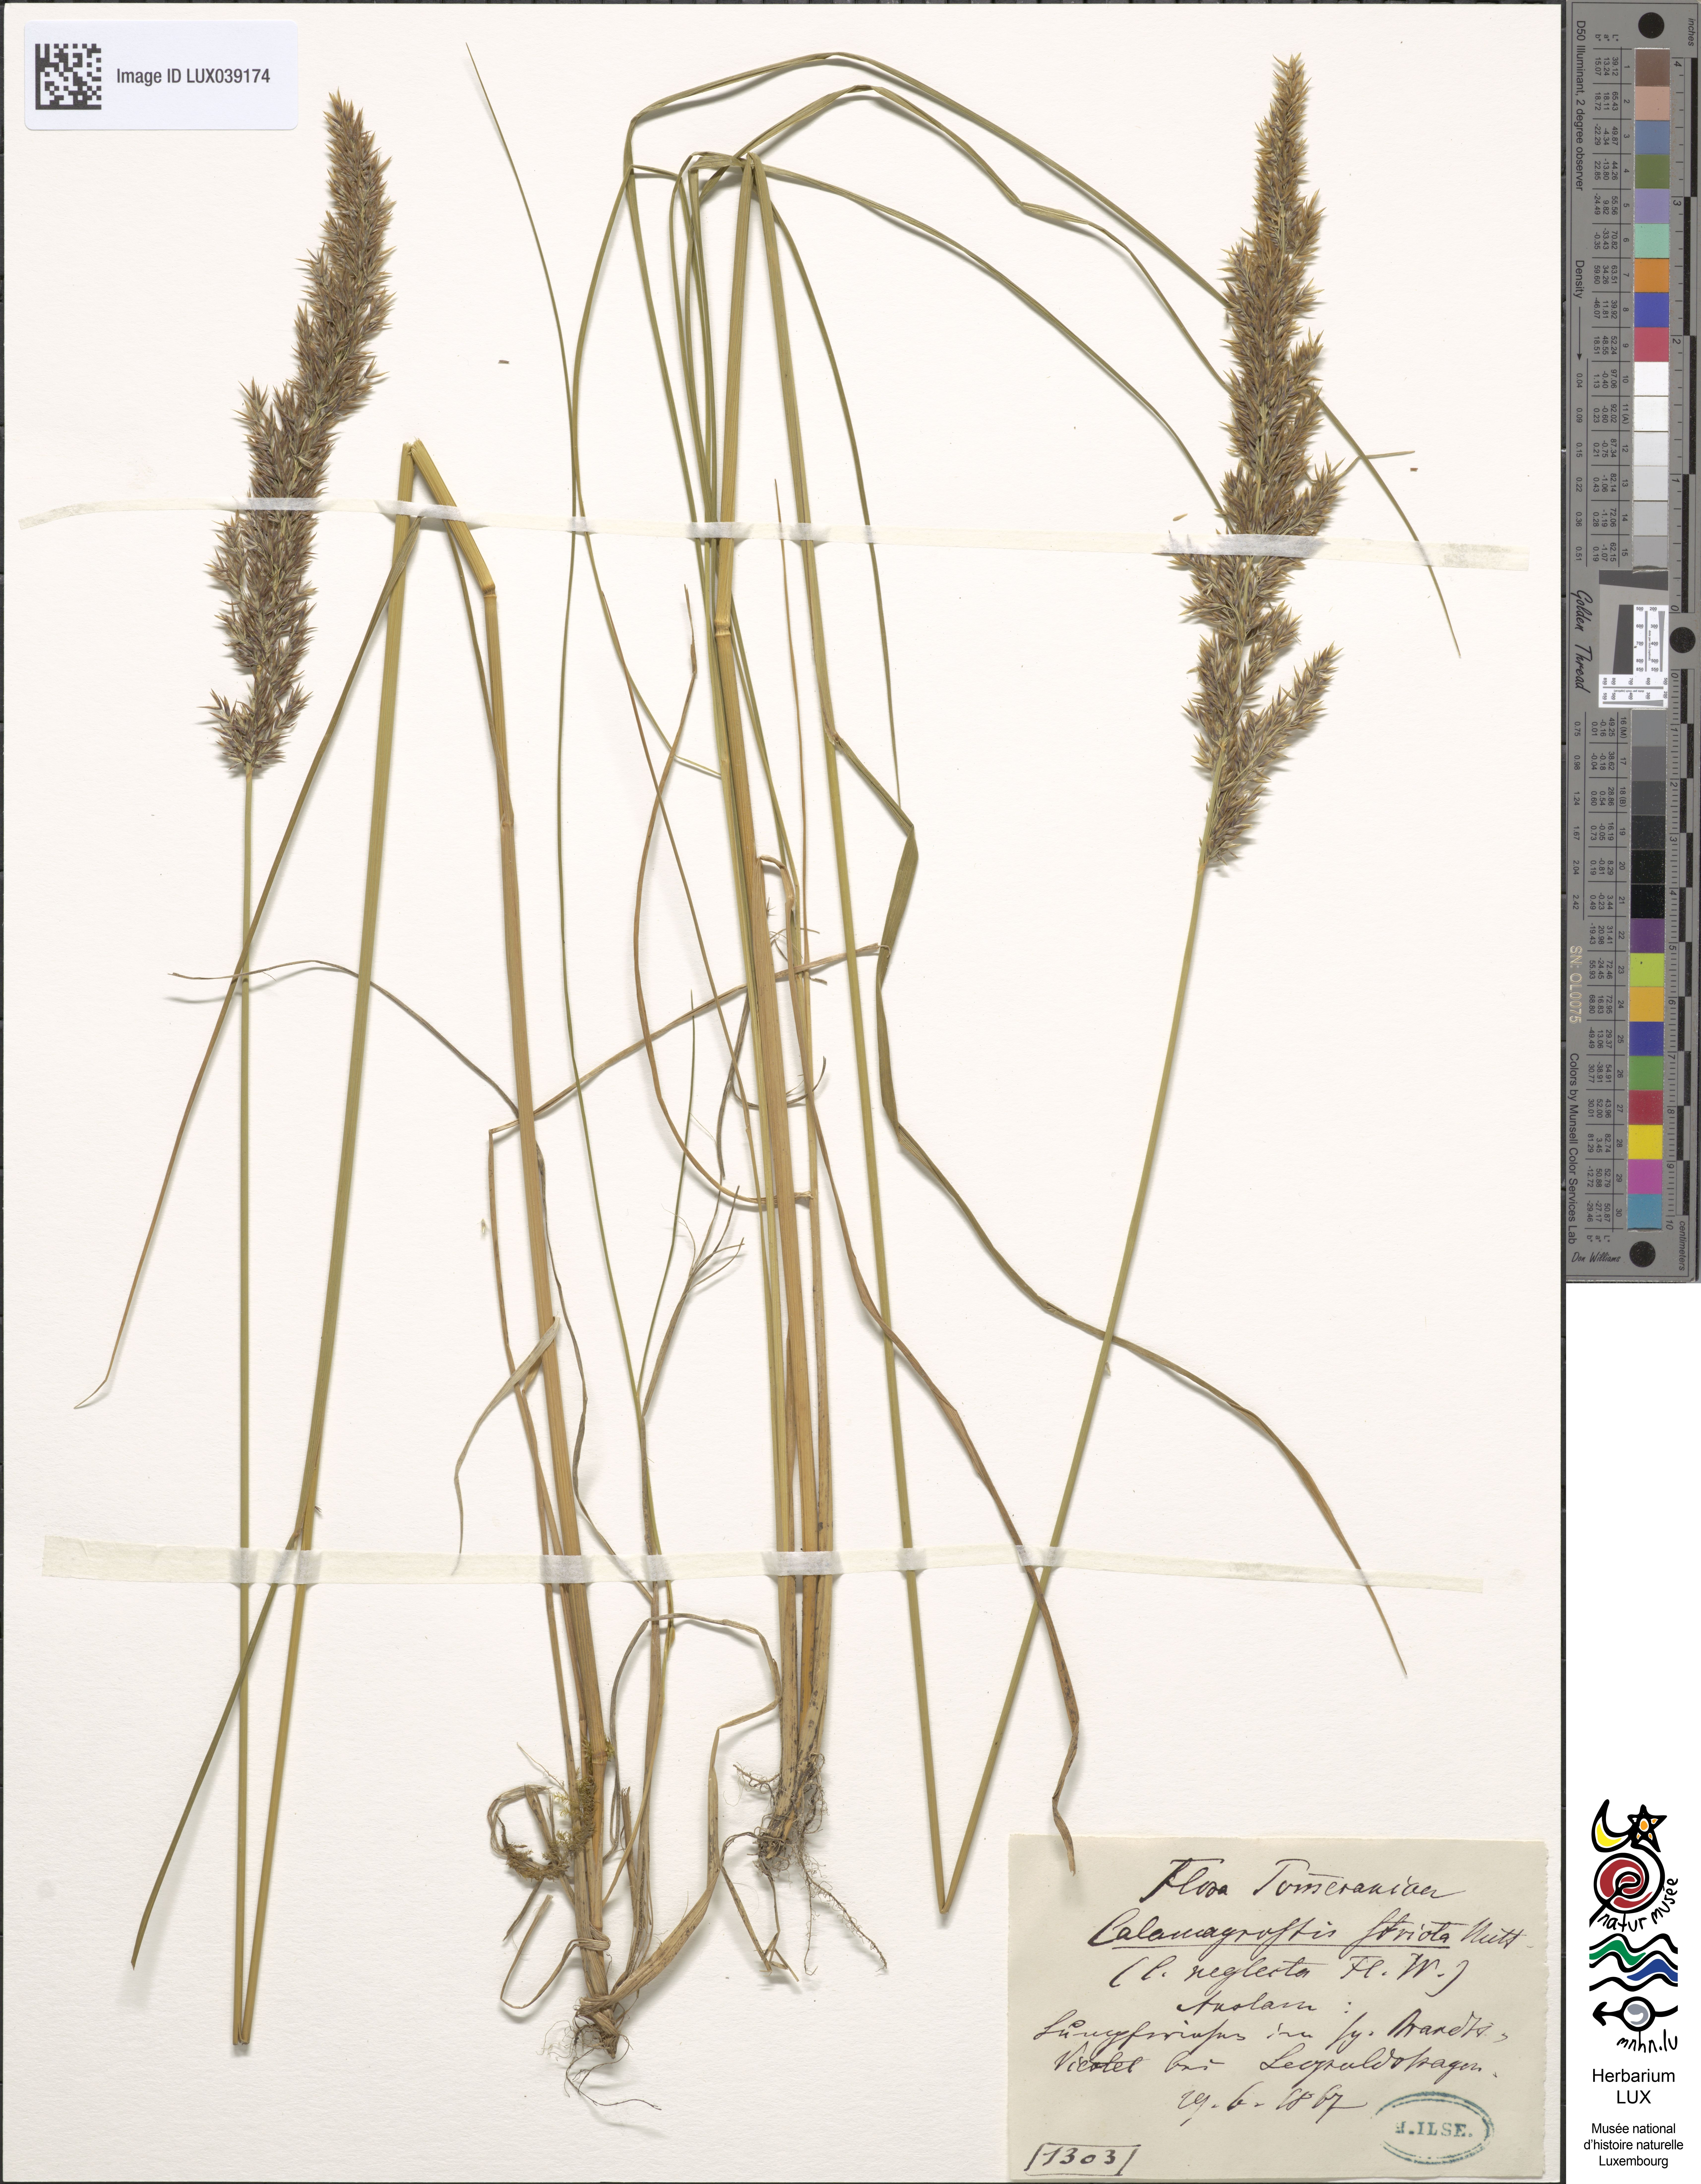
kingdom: Plantae
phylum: Tracheophyta
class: Liliopsida
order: Poales
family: Poaceae
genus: Calamagrostis
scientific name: Calamagrostis stricta
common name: Narrow small-reed
